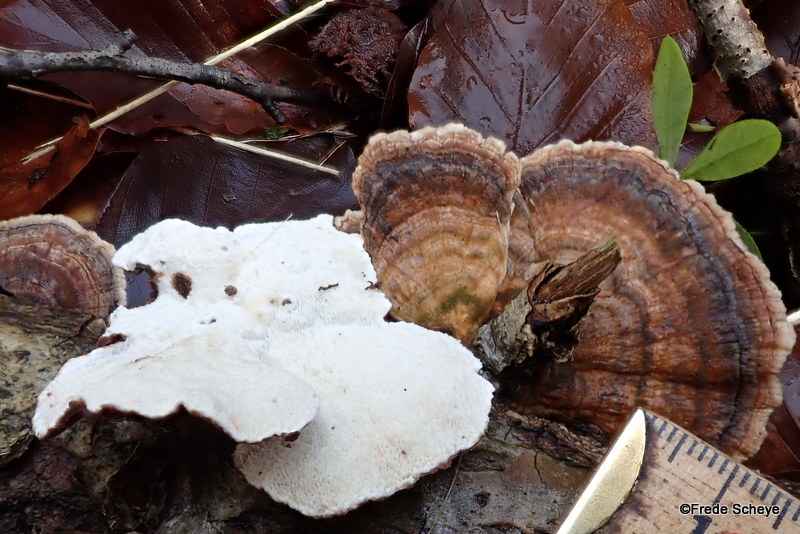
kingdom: Fungi
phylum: Basidiomycota
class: Agaricomycetes
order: Polyporales
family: Polyporaceae
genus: Trametes
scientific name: Trametes versicolor
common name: broget læderporesvamp
